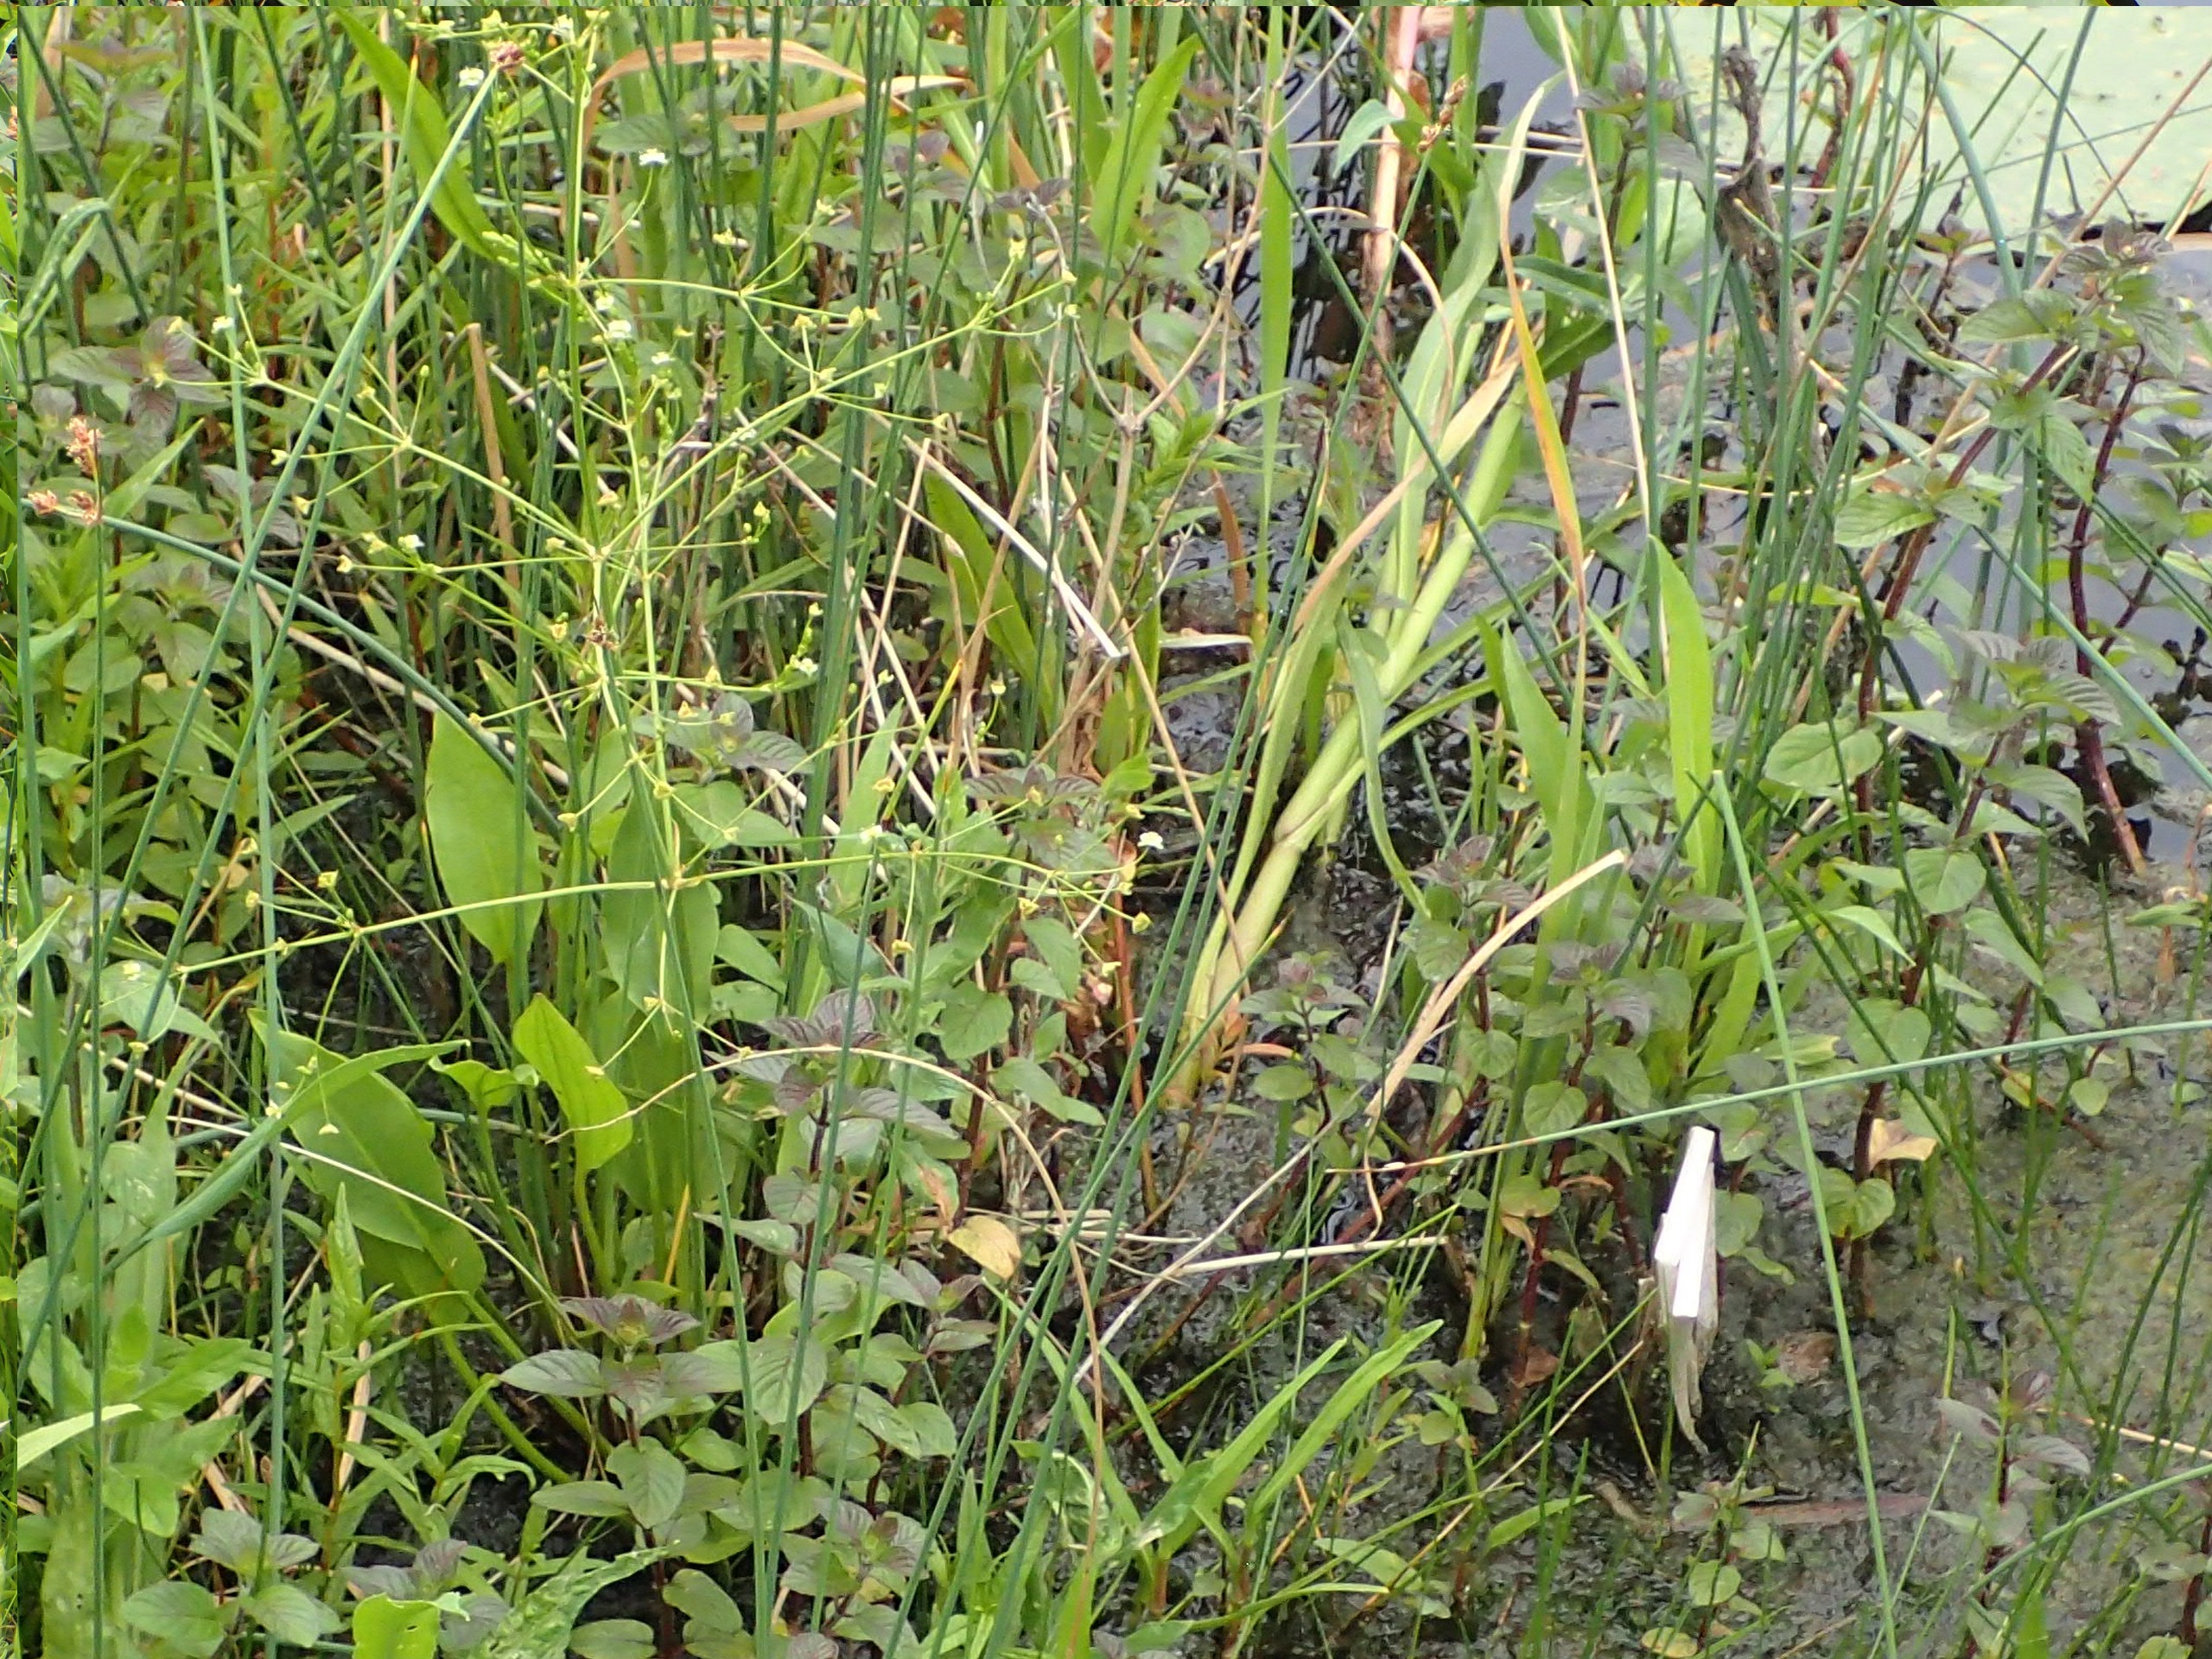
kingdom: Plantae
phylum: Tracheophyta
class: Liliopsida
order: Alismatales
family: Alismataceae
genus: Alisma
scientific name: Alisma plantago-aquatica
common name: Vejbred-skeblad
